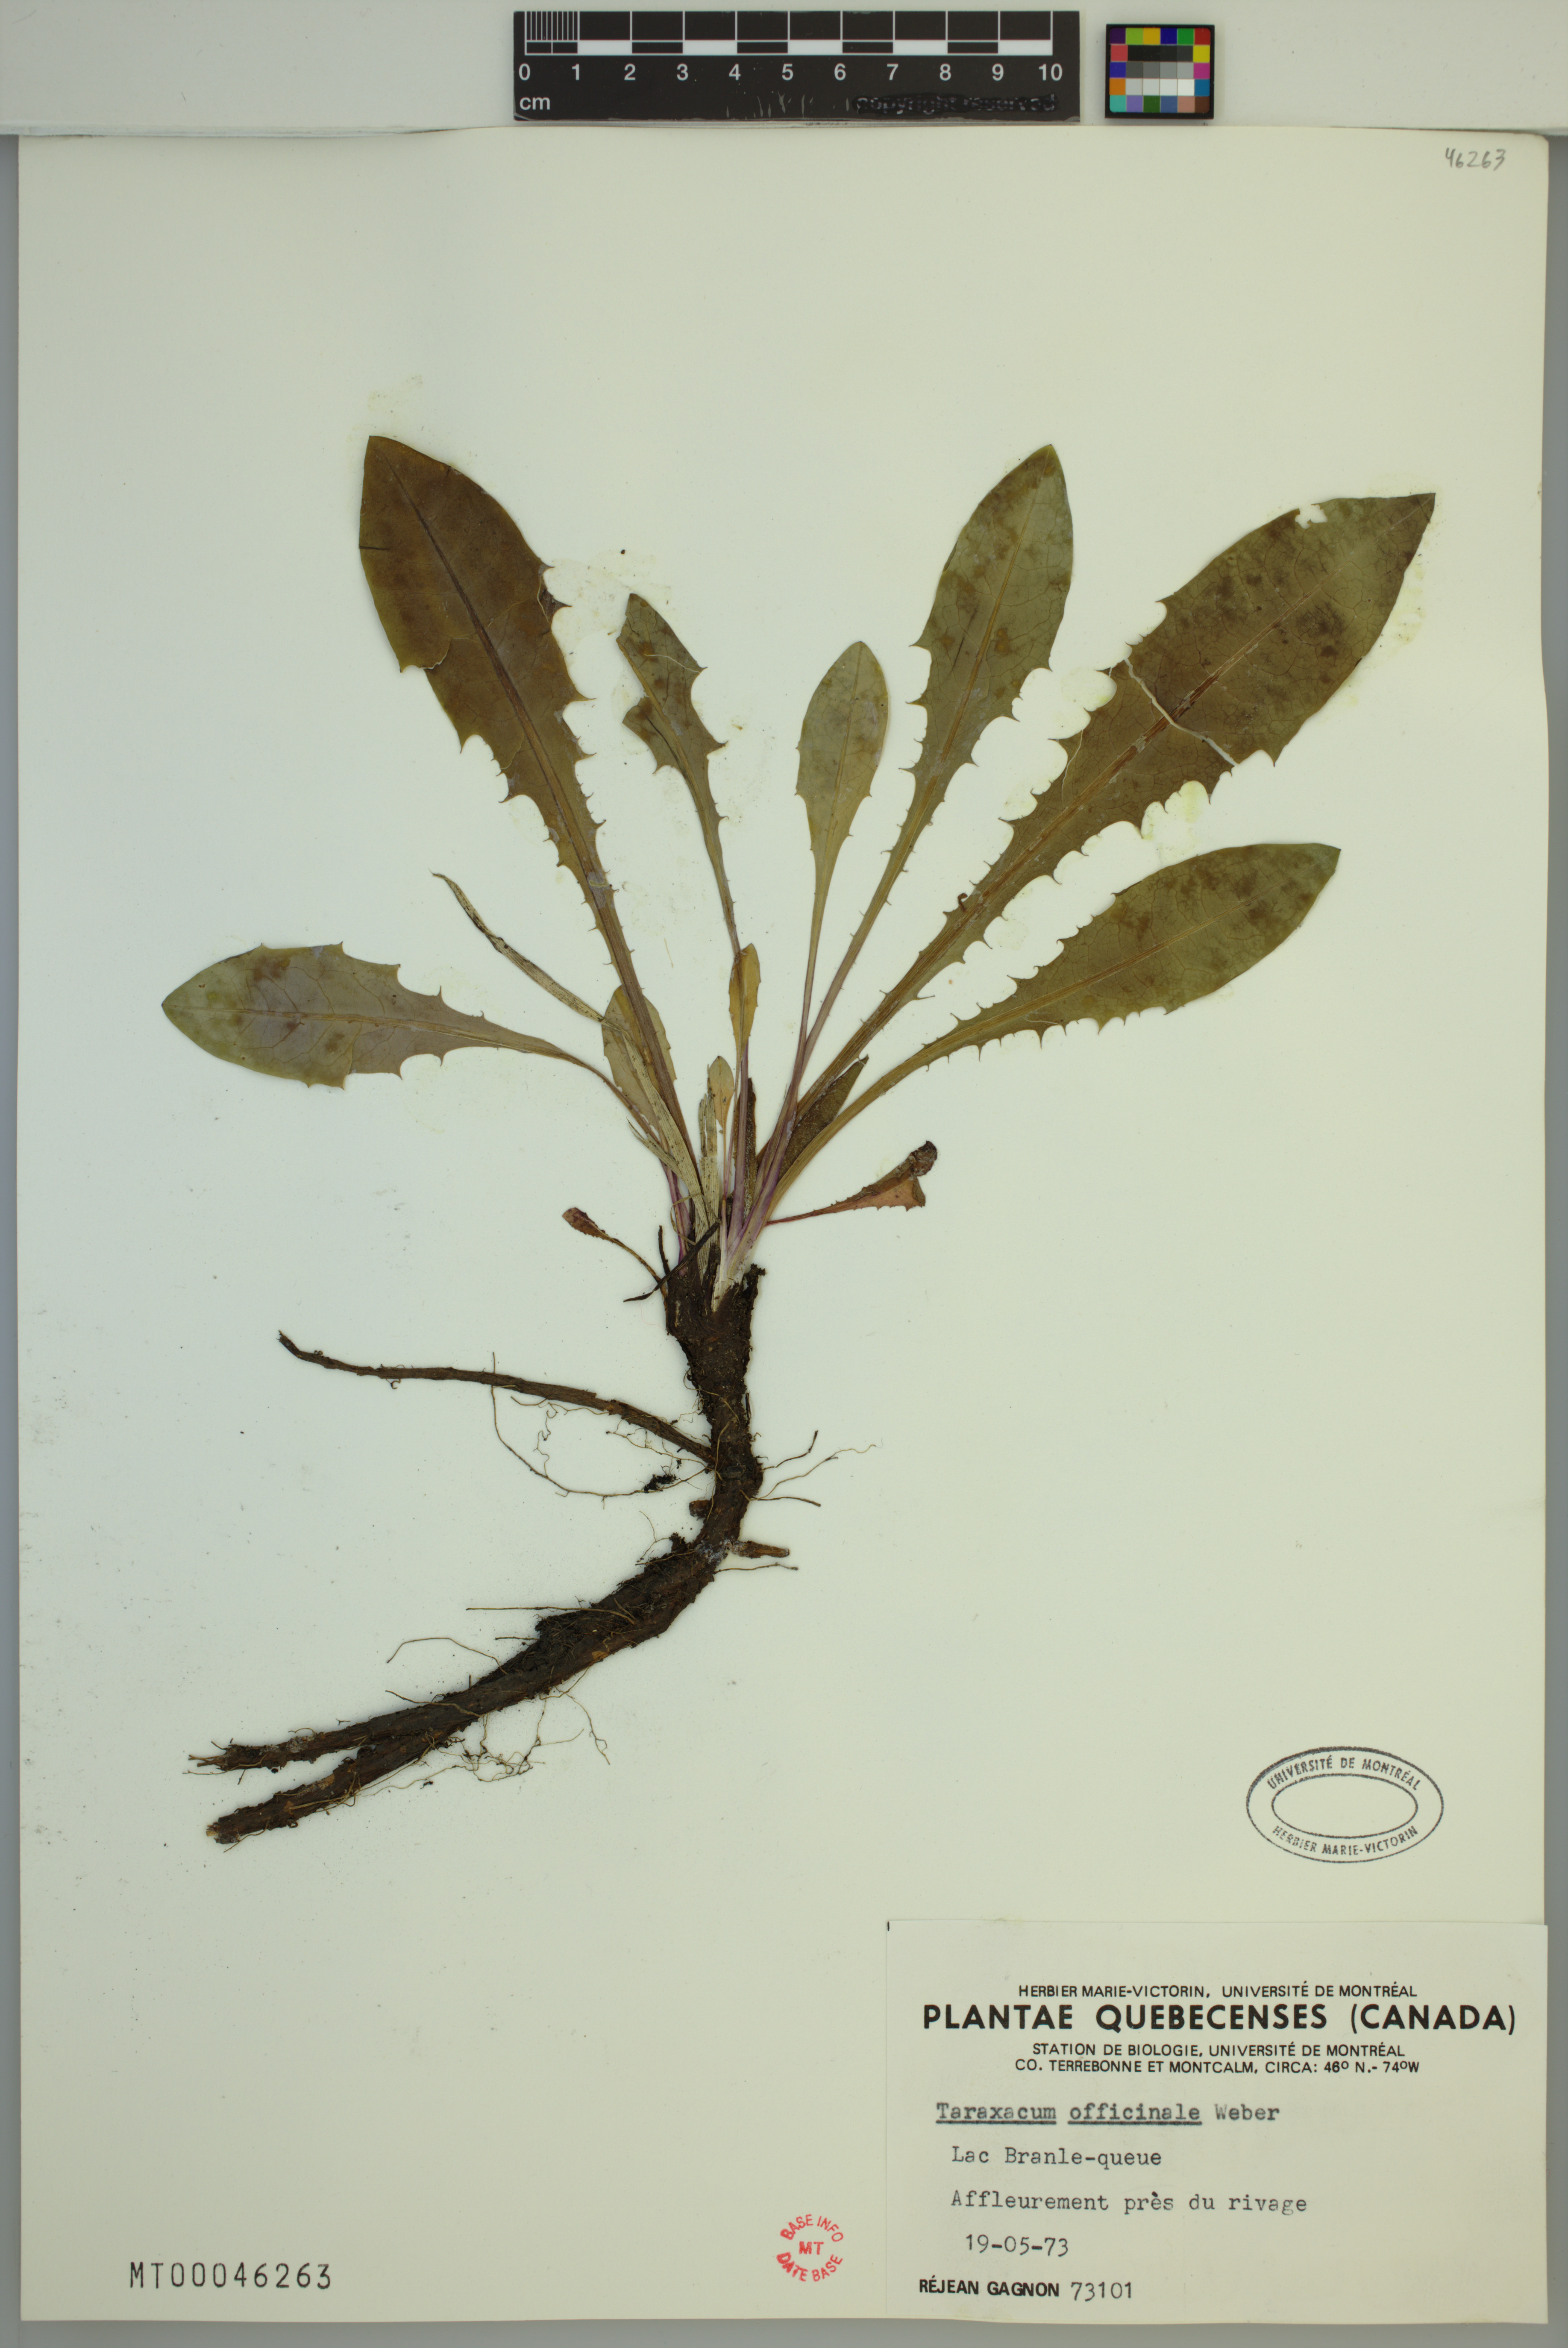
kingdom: Plantae
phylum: Tracheophyta
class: Magnoliopsida
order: Asterales
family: Asteraceae
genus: Taraxacum
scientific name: Taraxacum officinale
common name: Common dandelion
